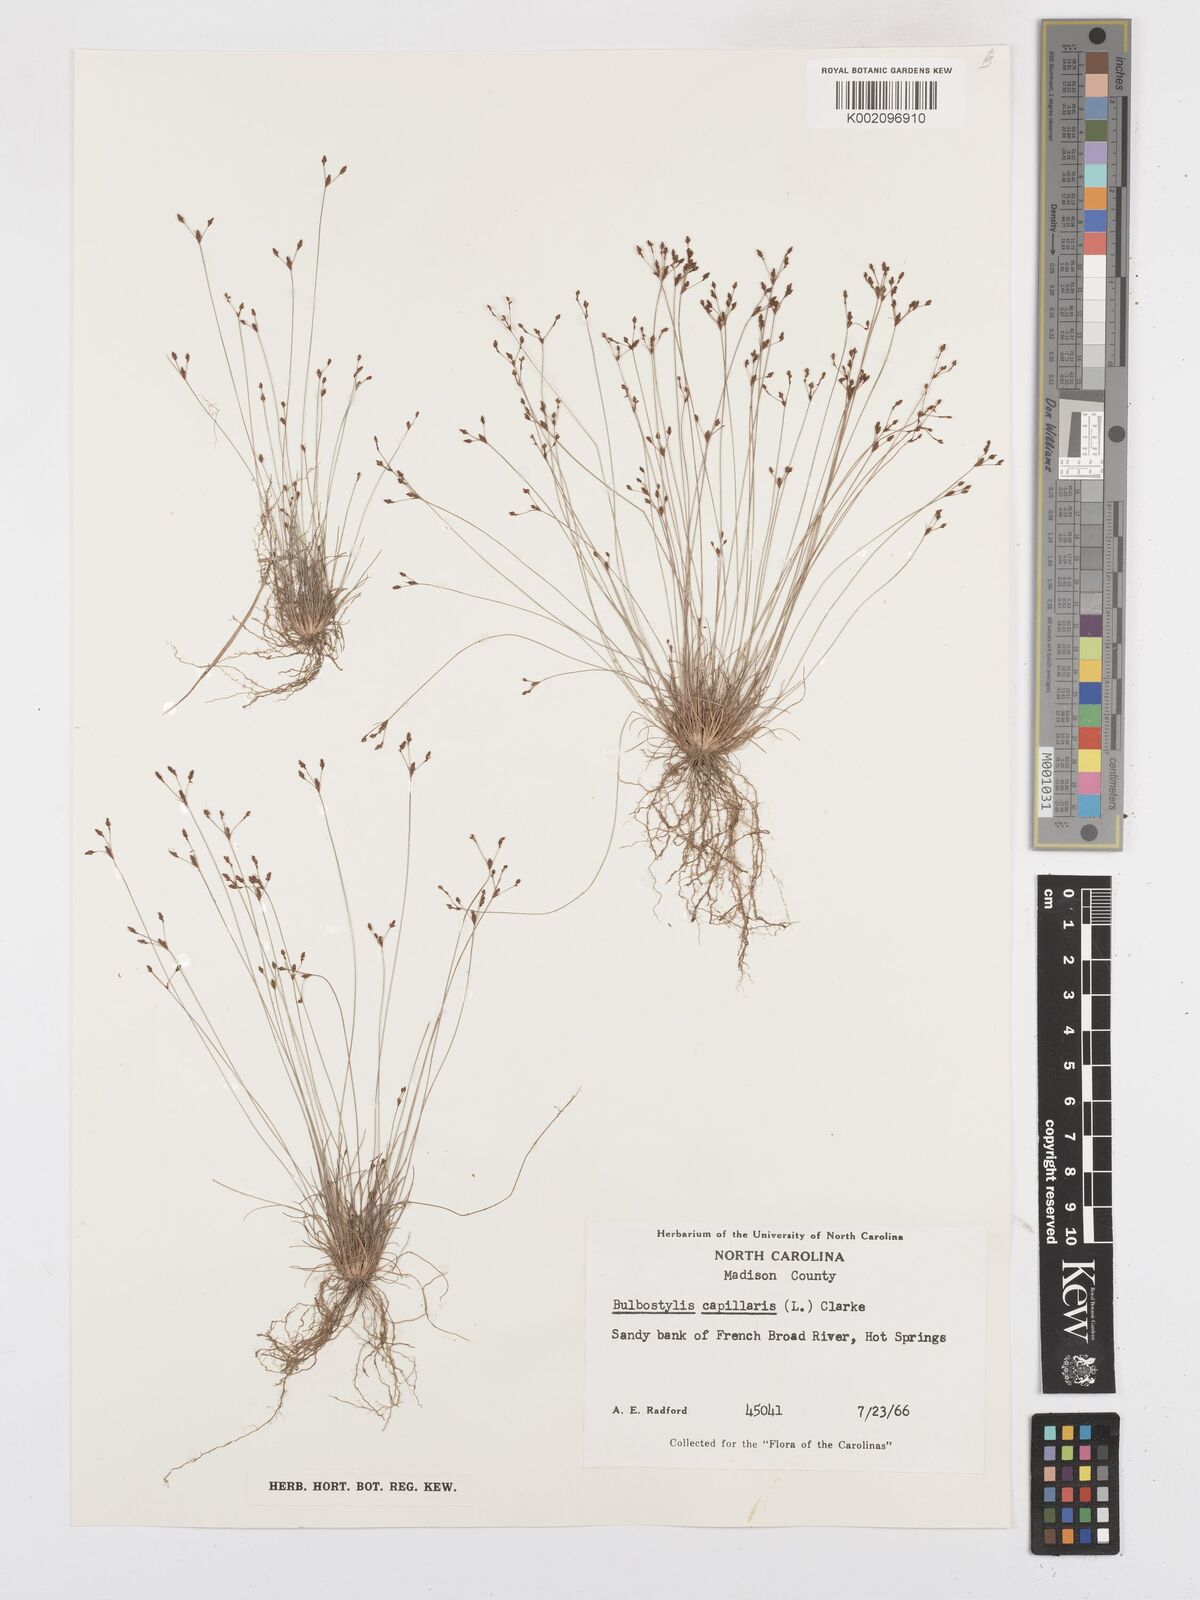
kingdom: Plantae
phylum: Tracheophyta
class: Liliopsida
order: Poales
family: Cyperaceae
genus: Bulbostylis
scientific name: Bulbostylis capillaris
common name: Densetuft hairsedge
